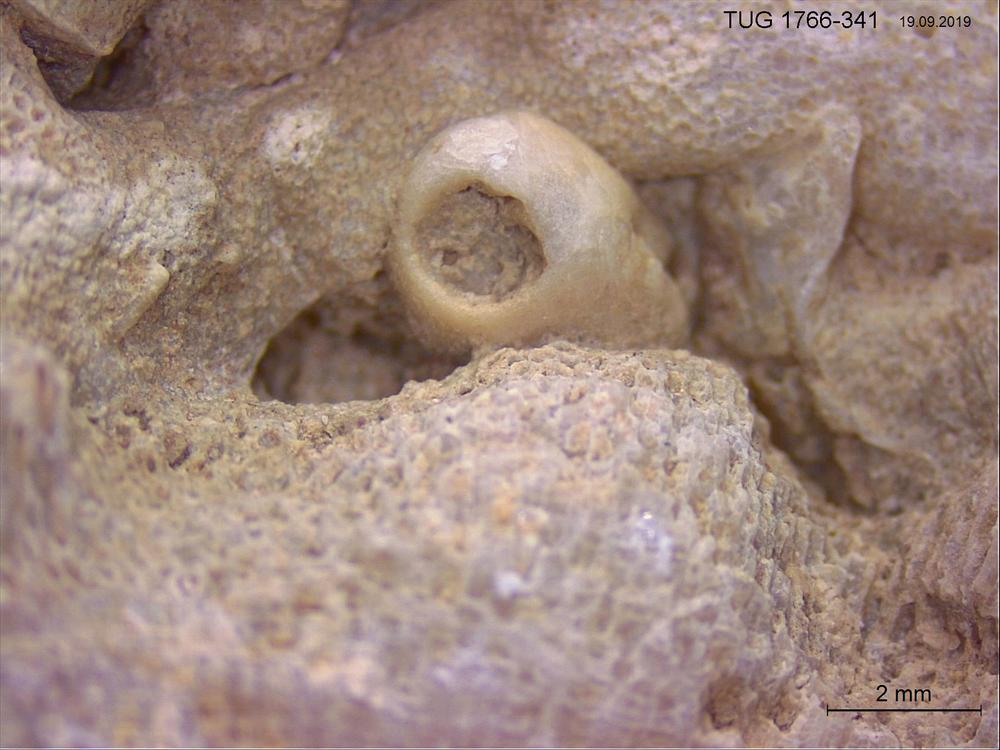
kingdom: Animalia
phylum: Brachiopoda
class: Rhynchonellata
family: Porambonitidae
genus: Porambonites
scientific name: Porambonites
